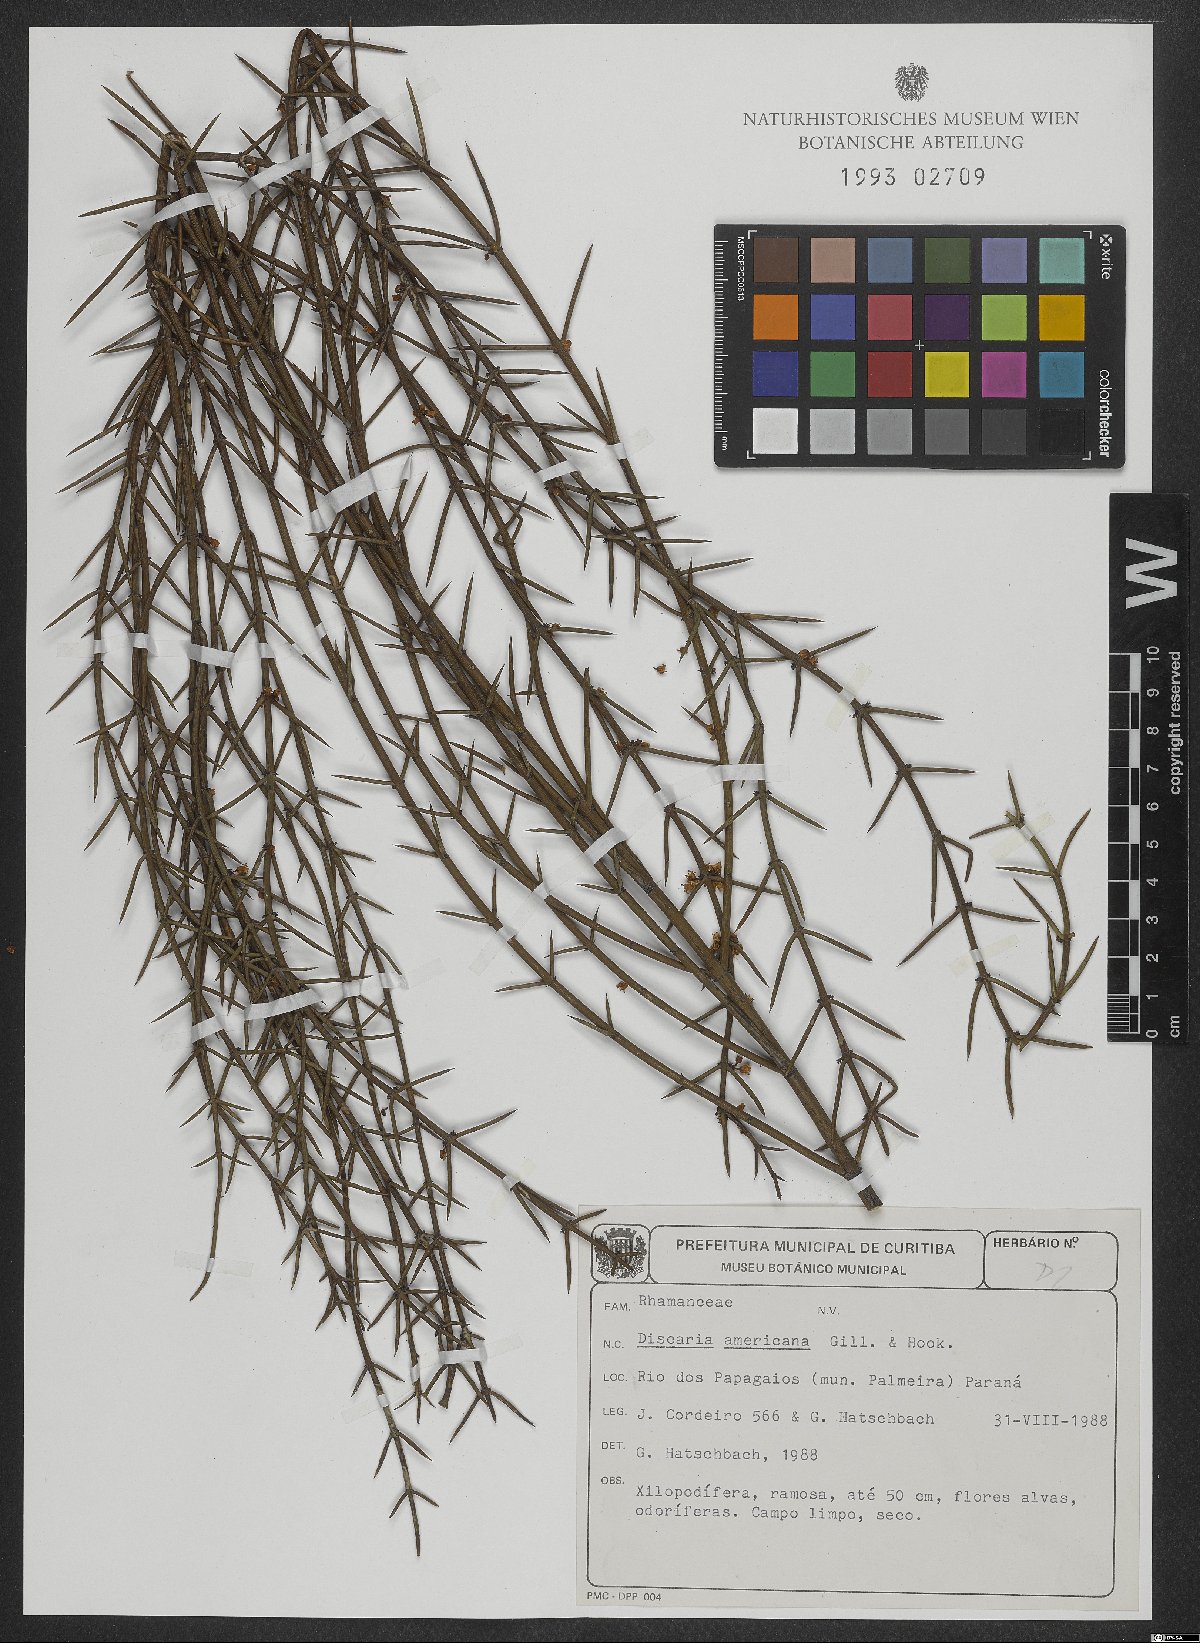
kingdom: Plantae
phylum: Tracheophyta
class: Magnoliopsida
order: Rosales
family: Rhamnaceae
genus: Discaria
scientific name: Discaria americana
